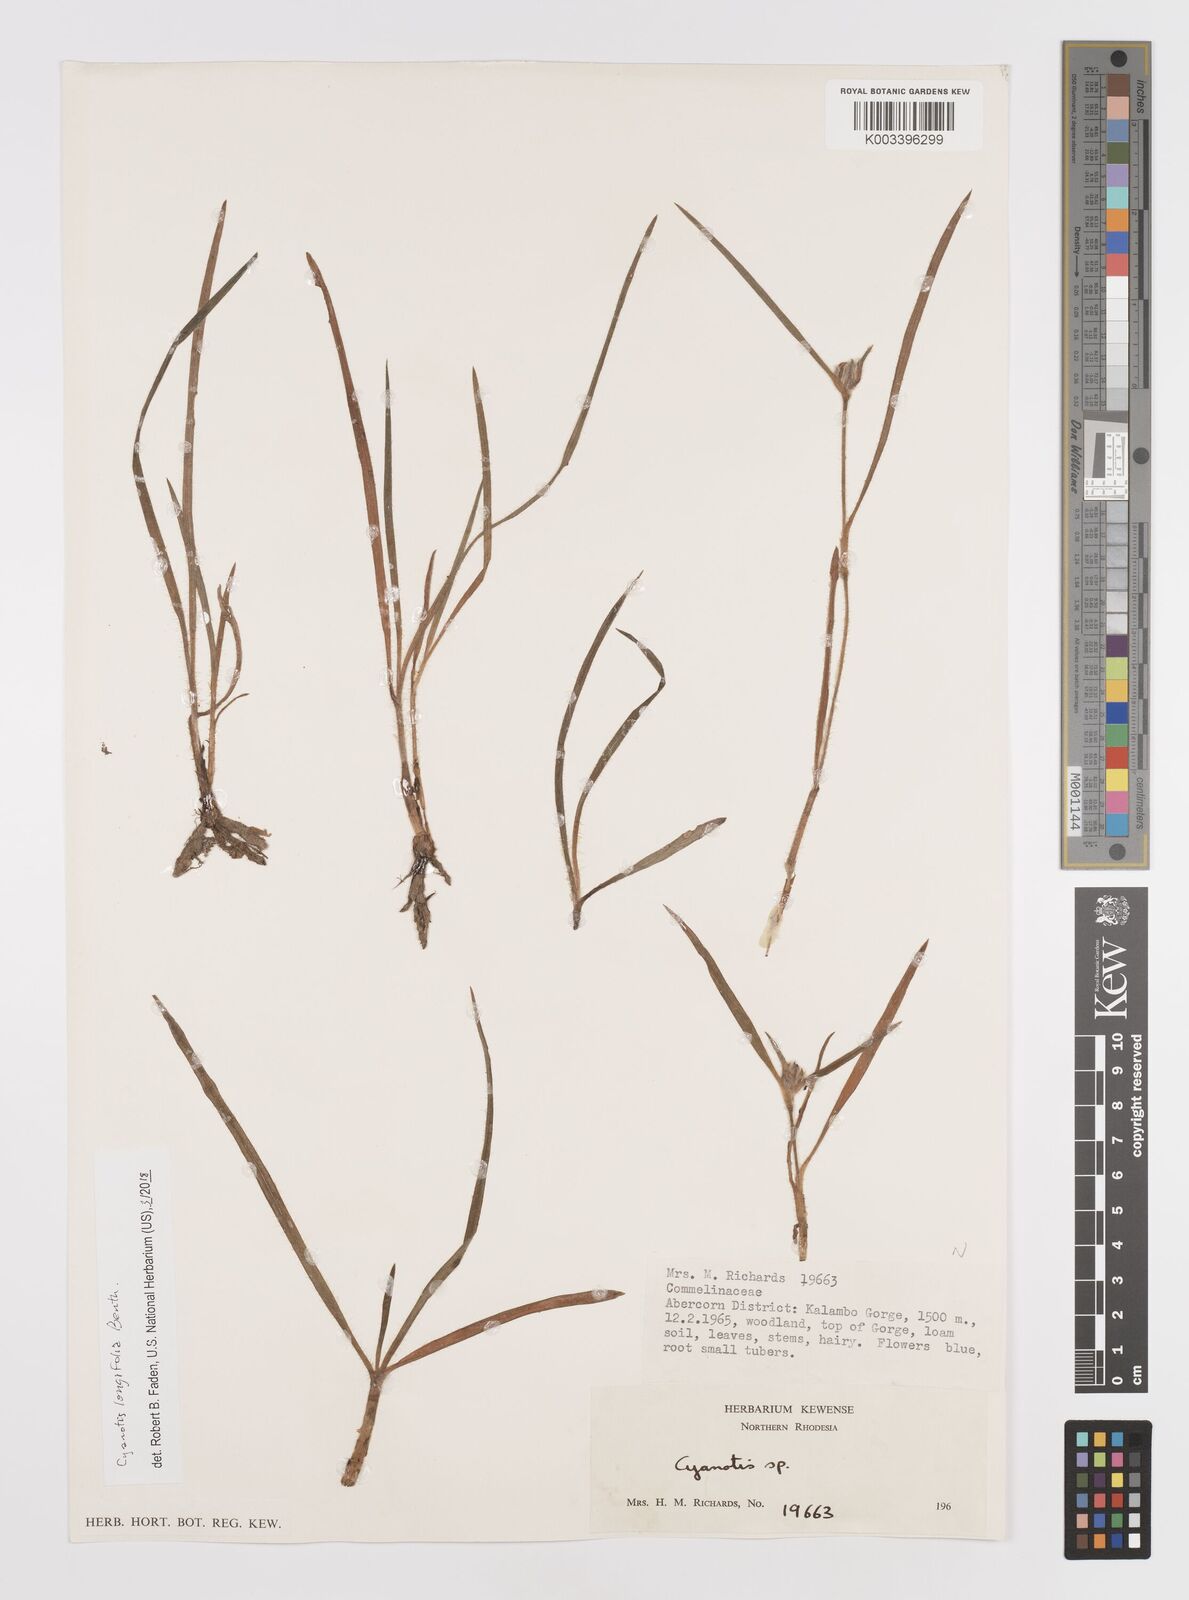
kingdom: Plantae
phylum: Tracheophyta
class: Liliopsida
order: Commelinales
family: Commelinaceae
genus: Cyanotis
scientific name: Cyanotis longifolia
